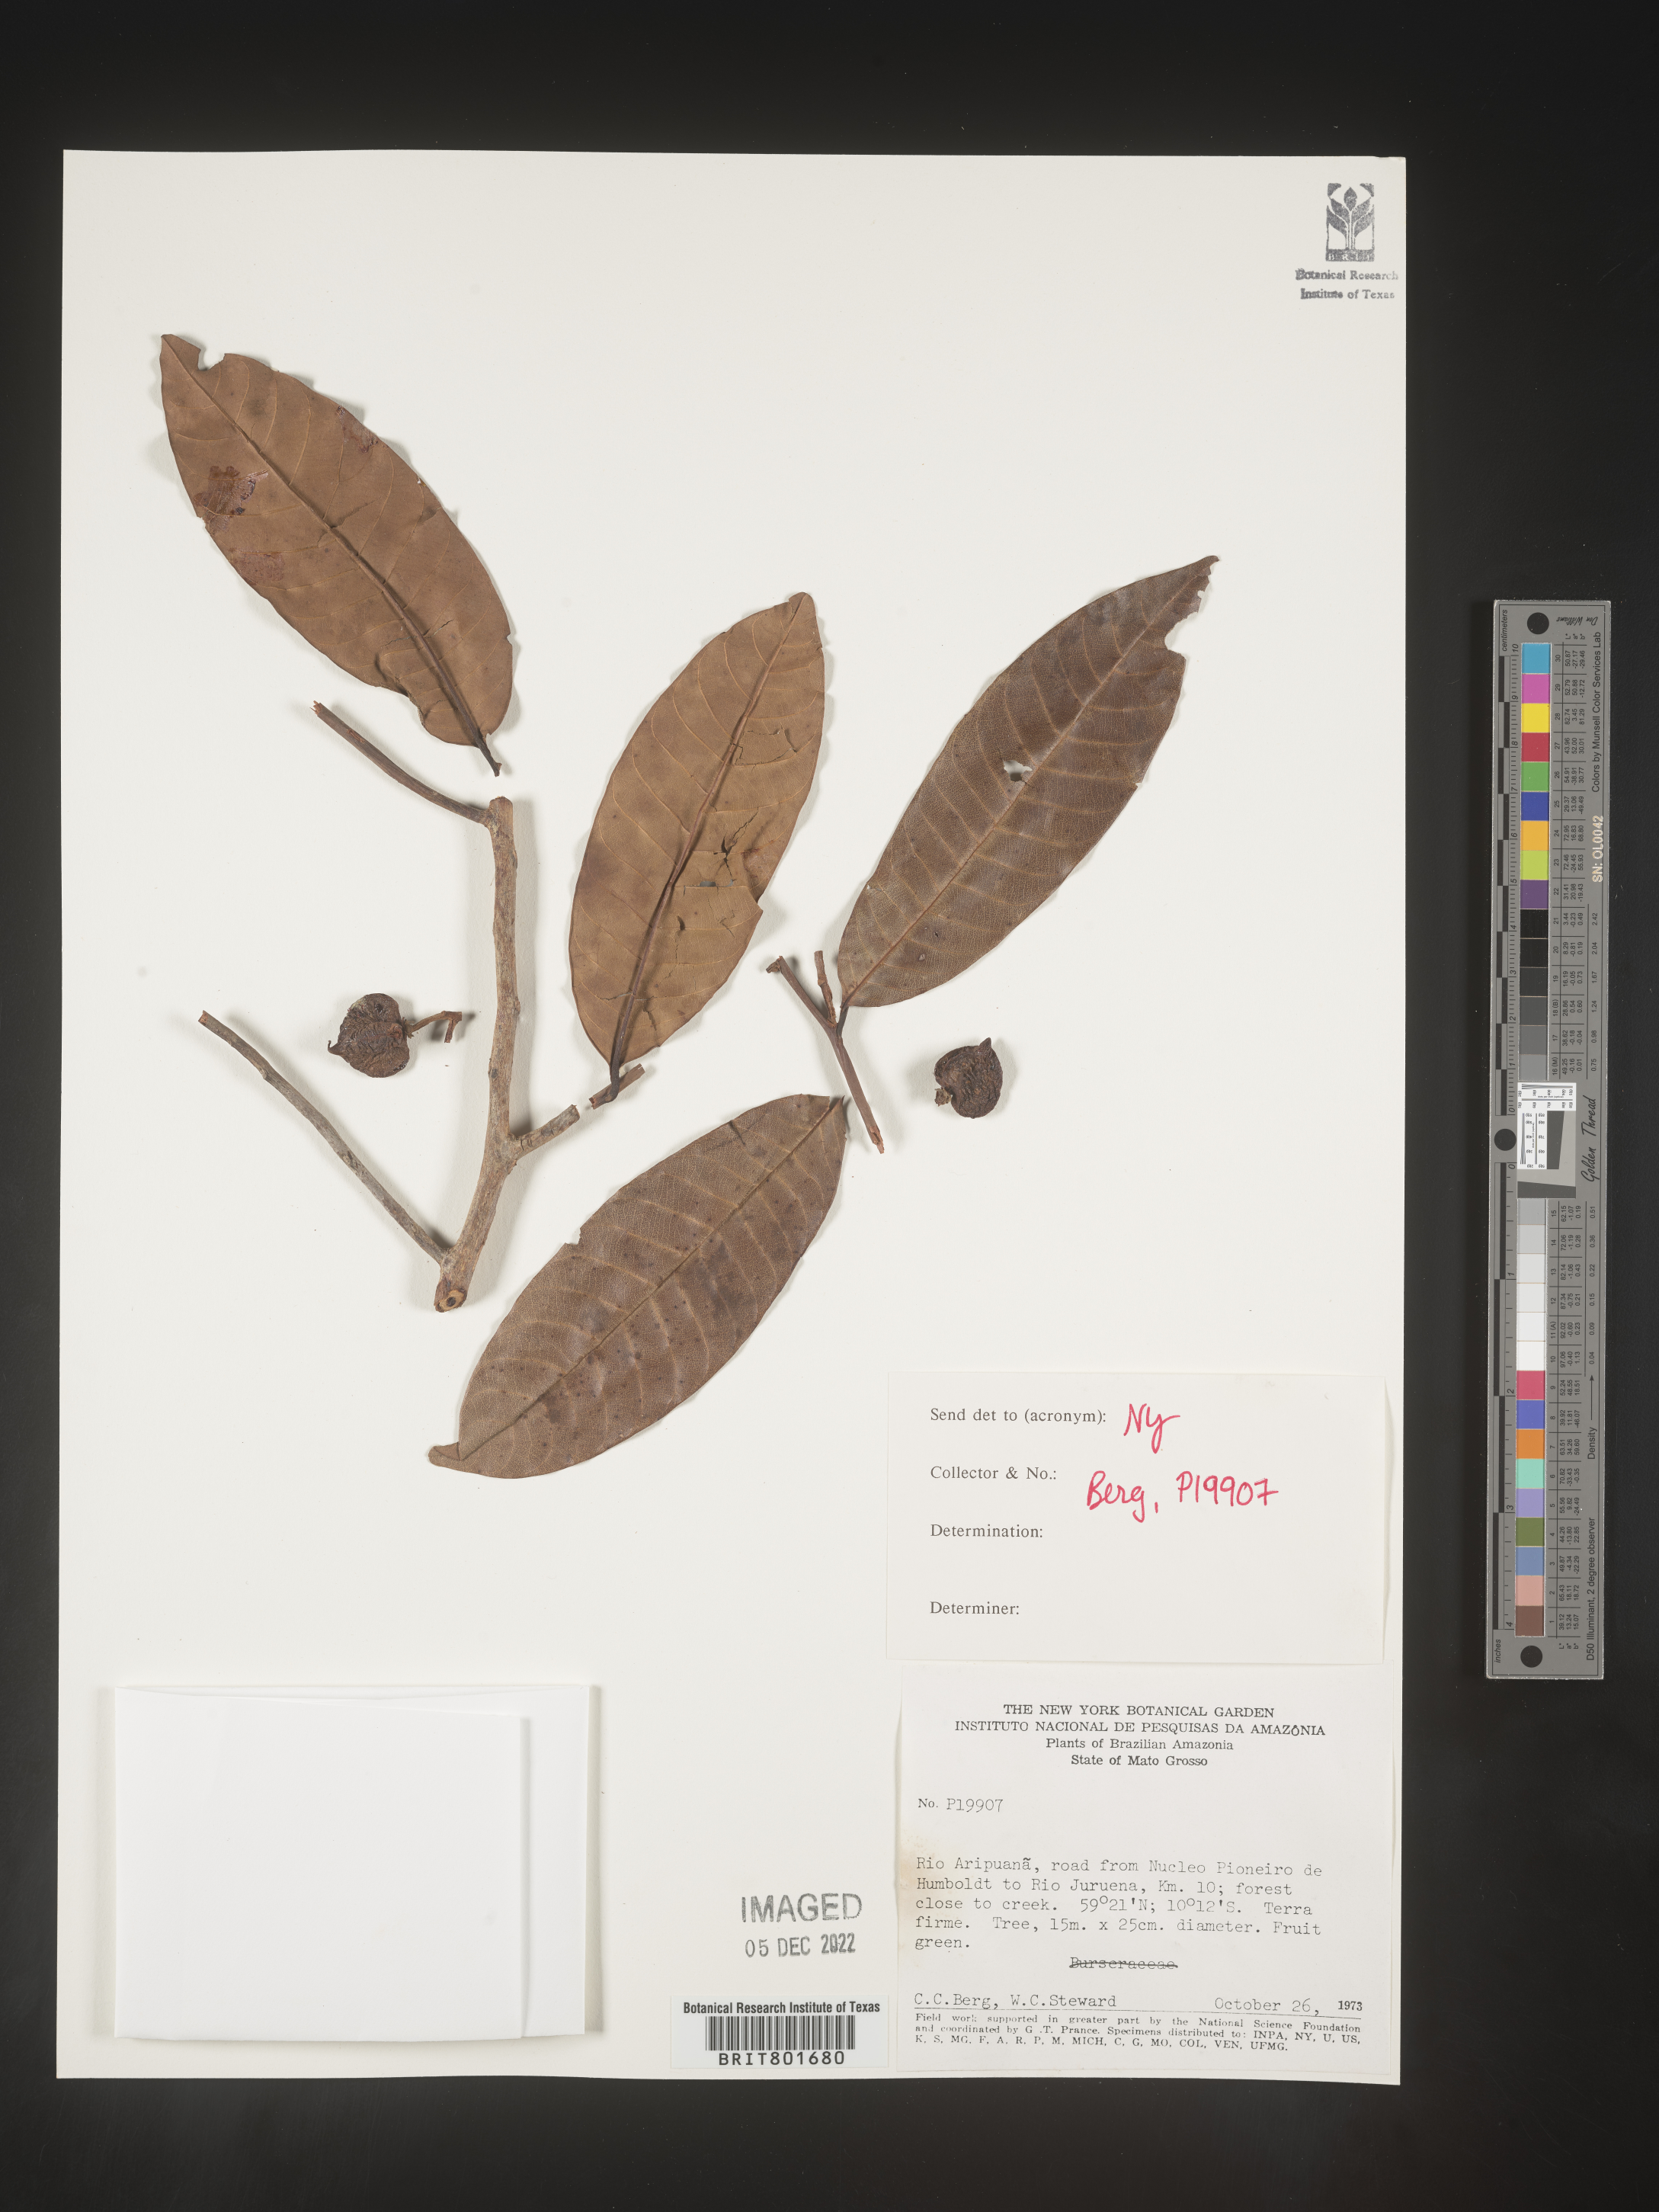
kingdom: Plantae
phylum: Tracheophyta
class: Magnoliopsida
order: Malpighiales
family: Clusiaceae
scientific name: Clusiaceae
